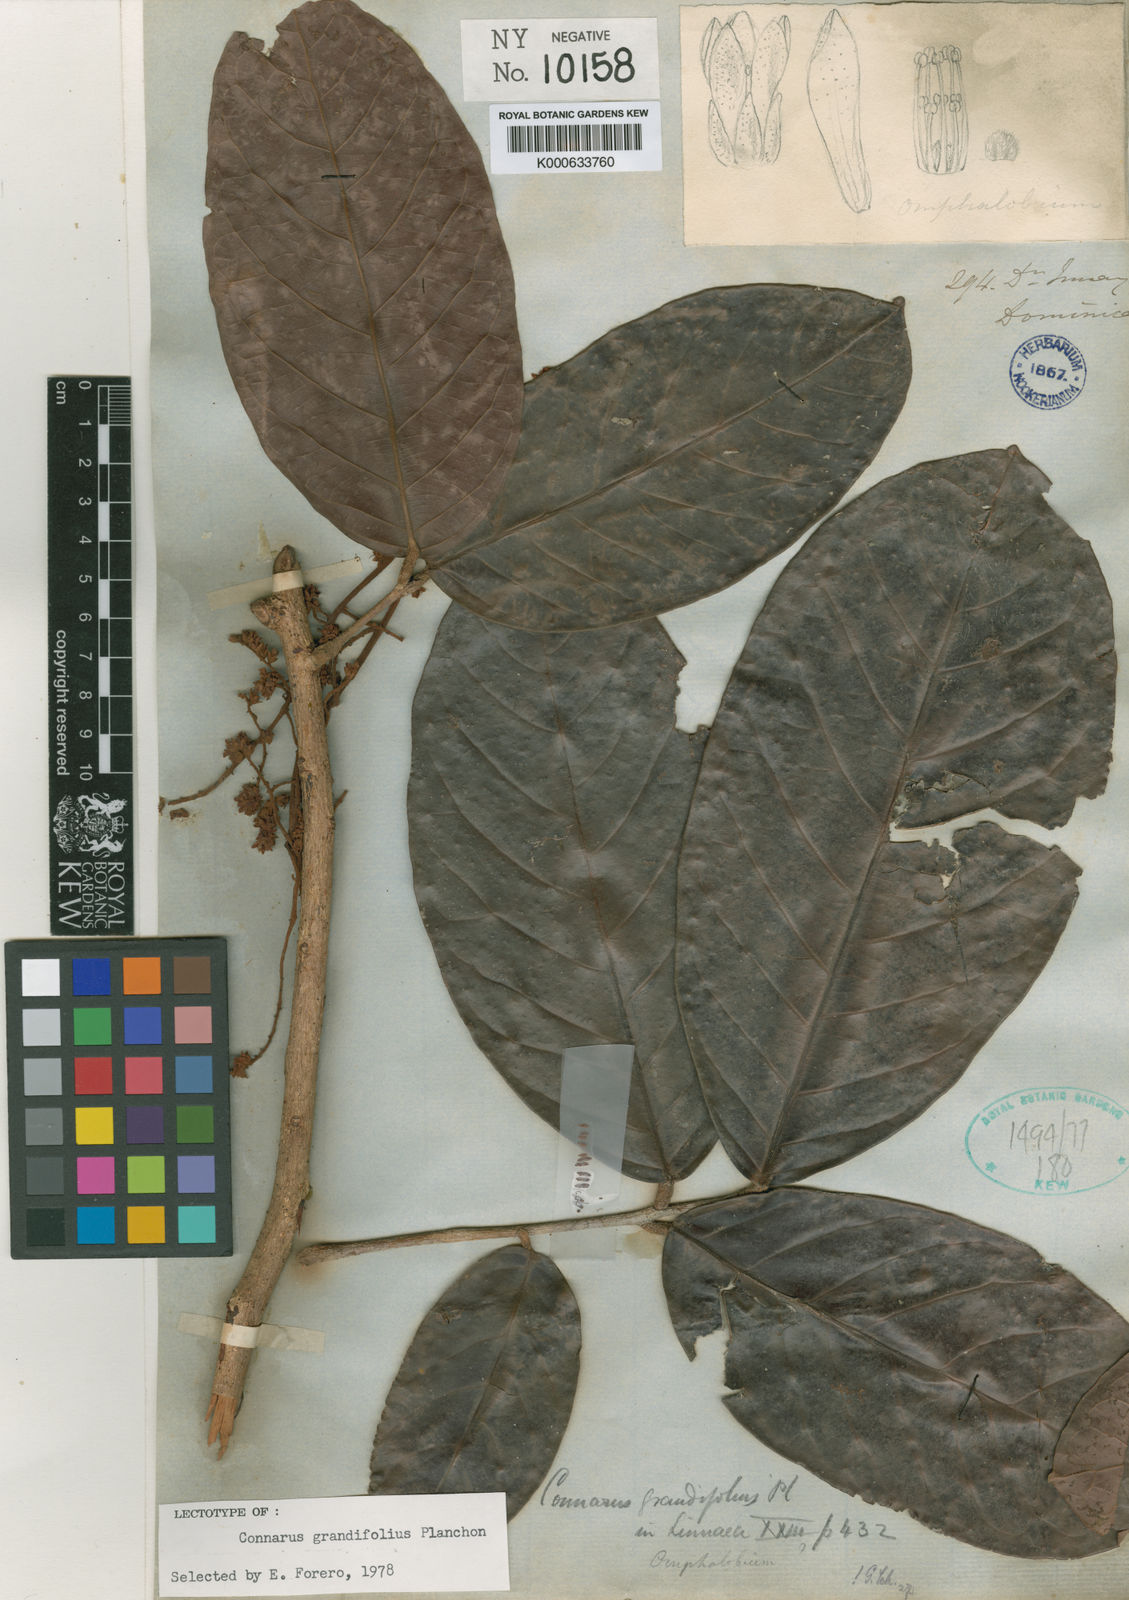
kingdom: Plantae
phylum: Tracheophyta
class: Magnoliopsida
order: Oxalidales
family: Connaraceae
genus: Connarus
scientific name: Connarus grandifolius
